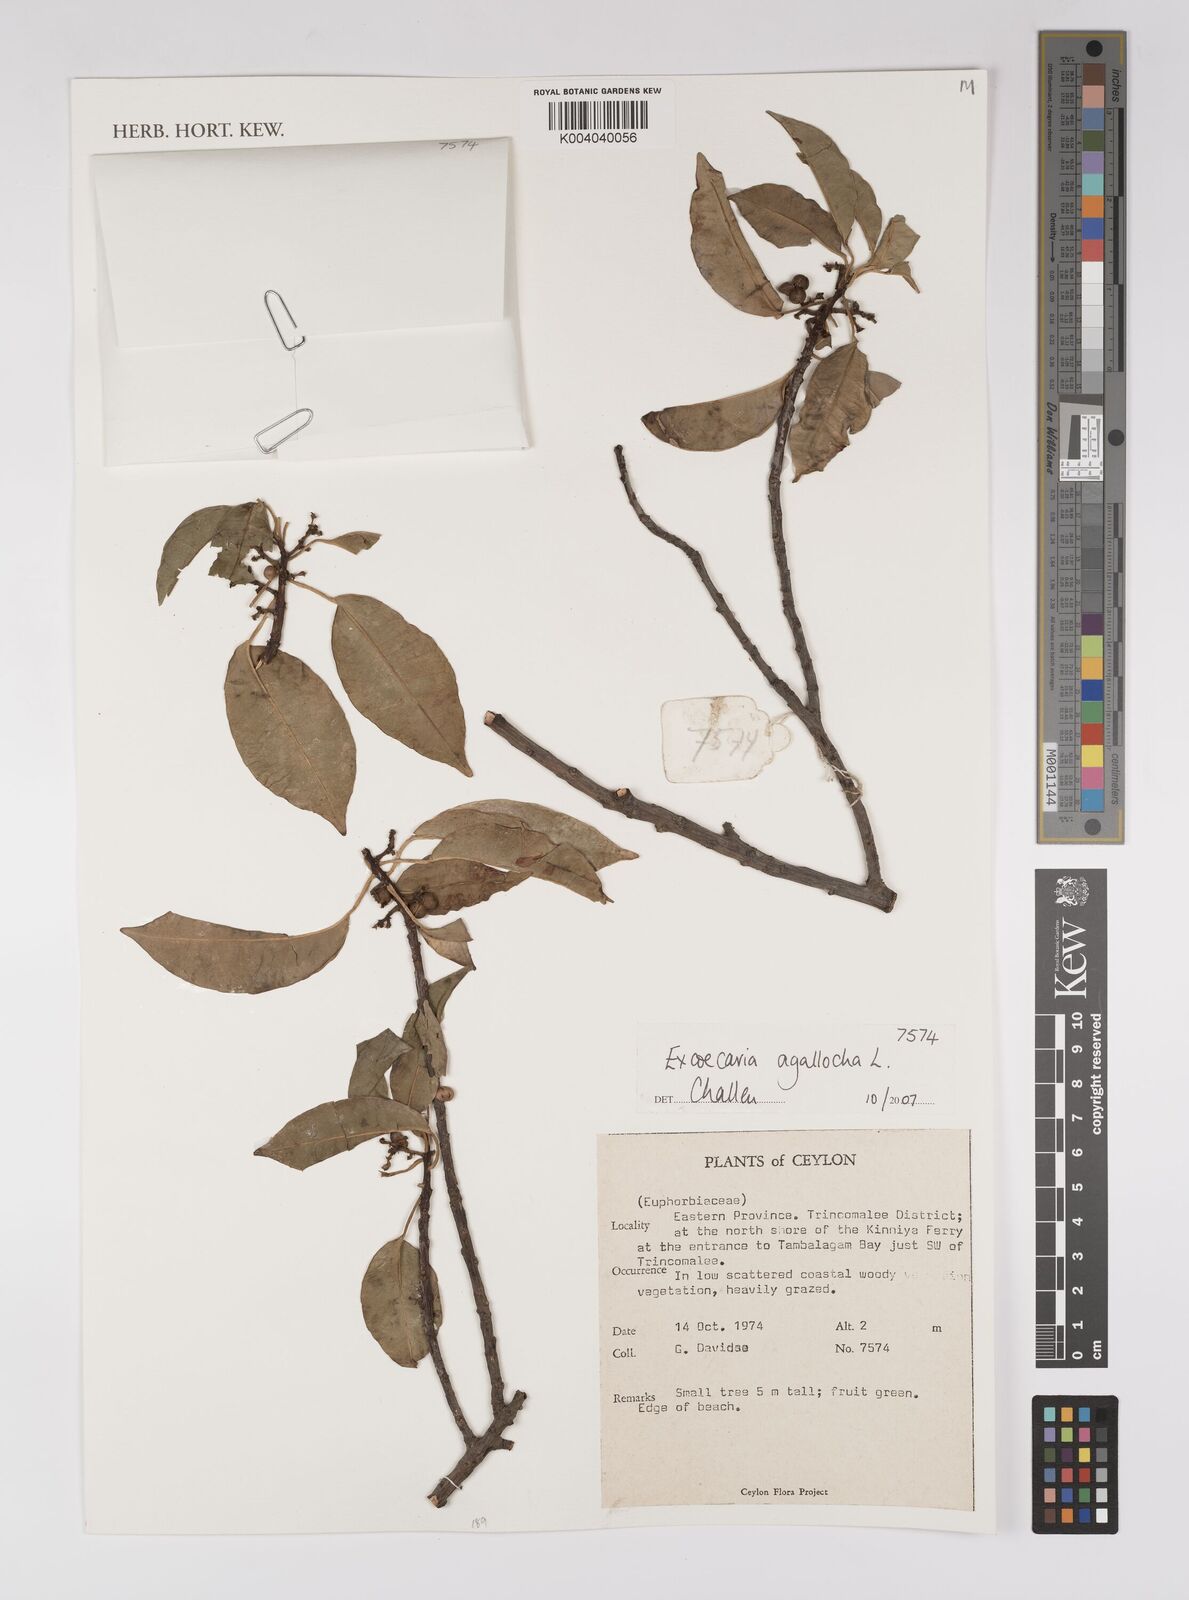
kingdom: Plantae
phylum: Tracheophyta
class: Magnoliopsida
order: Malpighiales
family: Euphorbiaceae
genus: Excoecaria
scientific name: Excoecaria agallocha
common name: River poisontree
